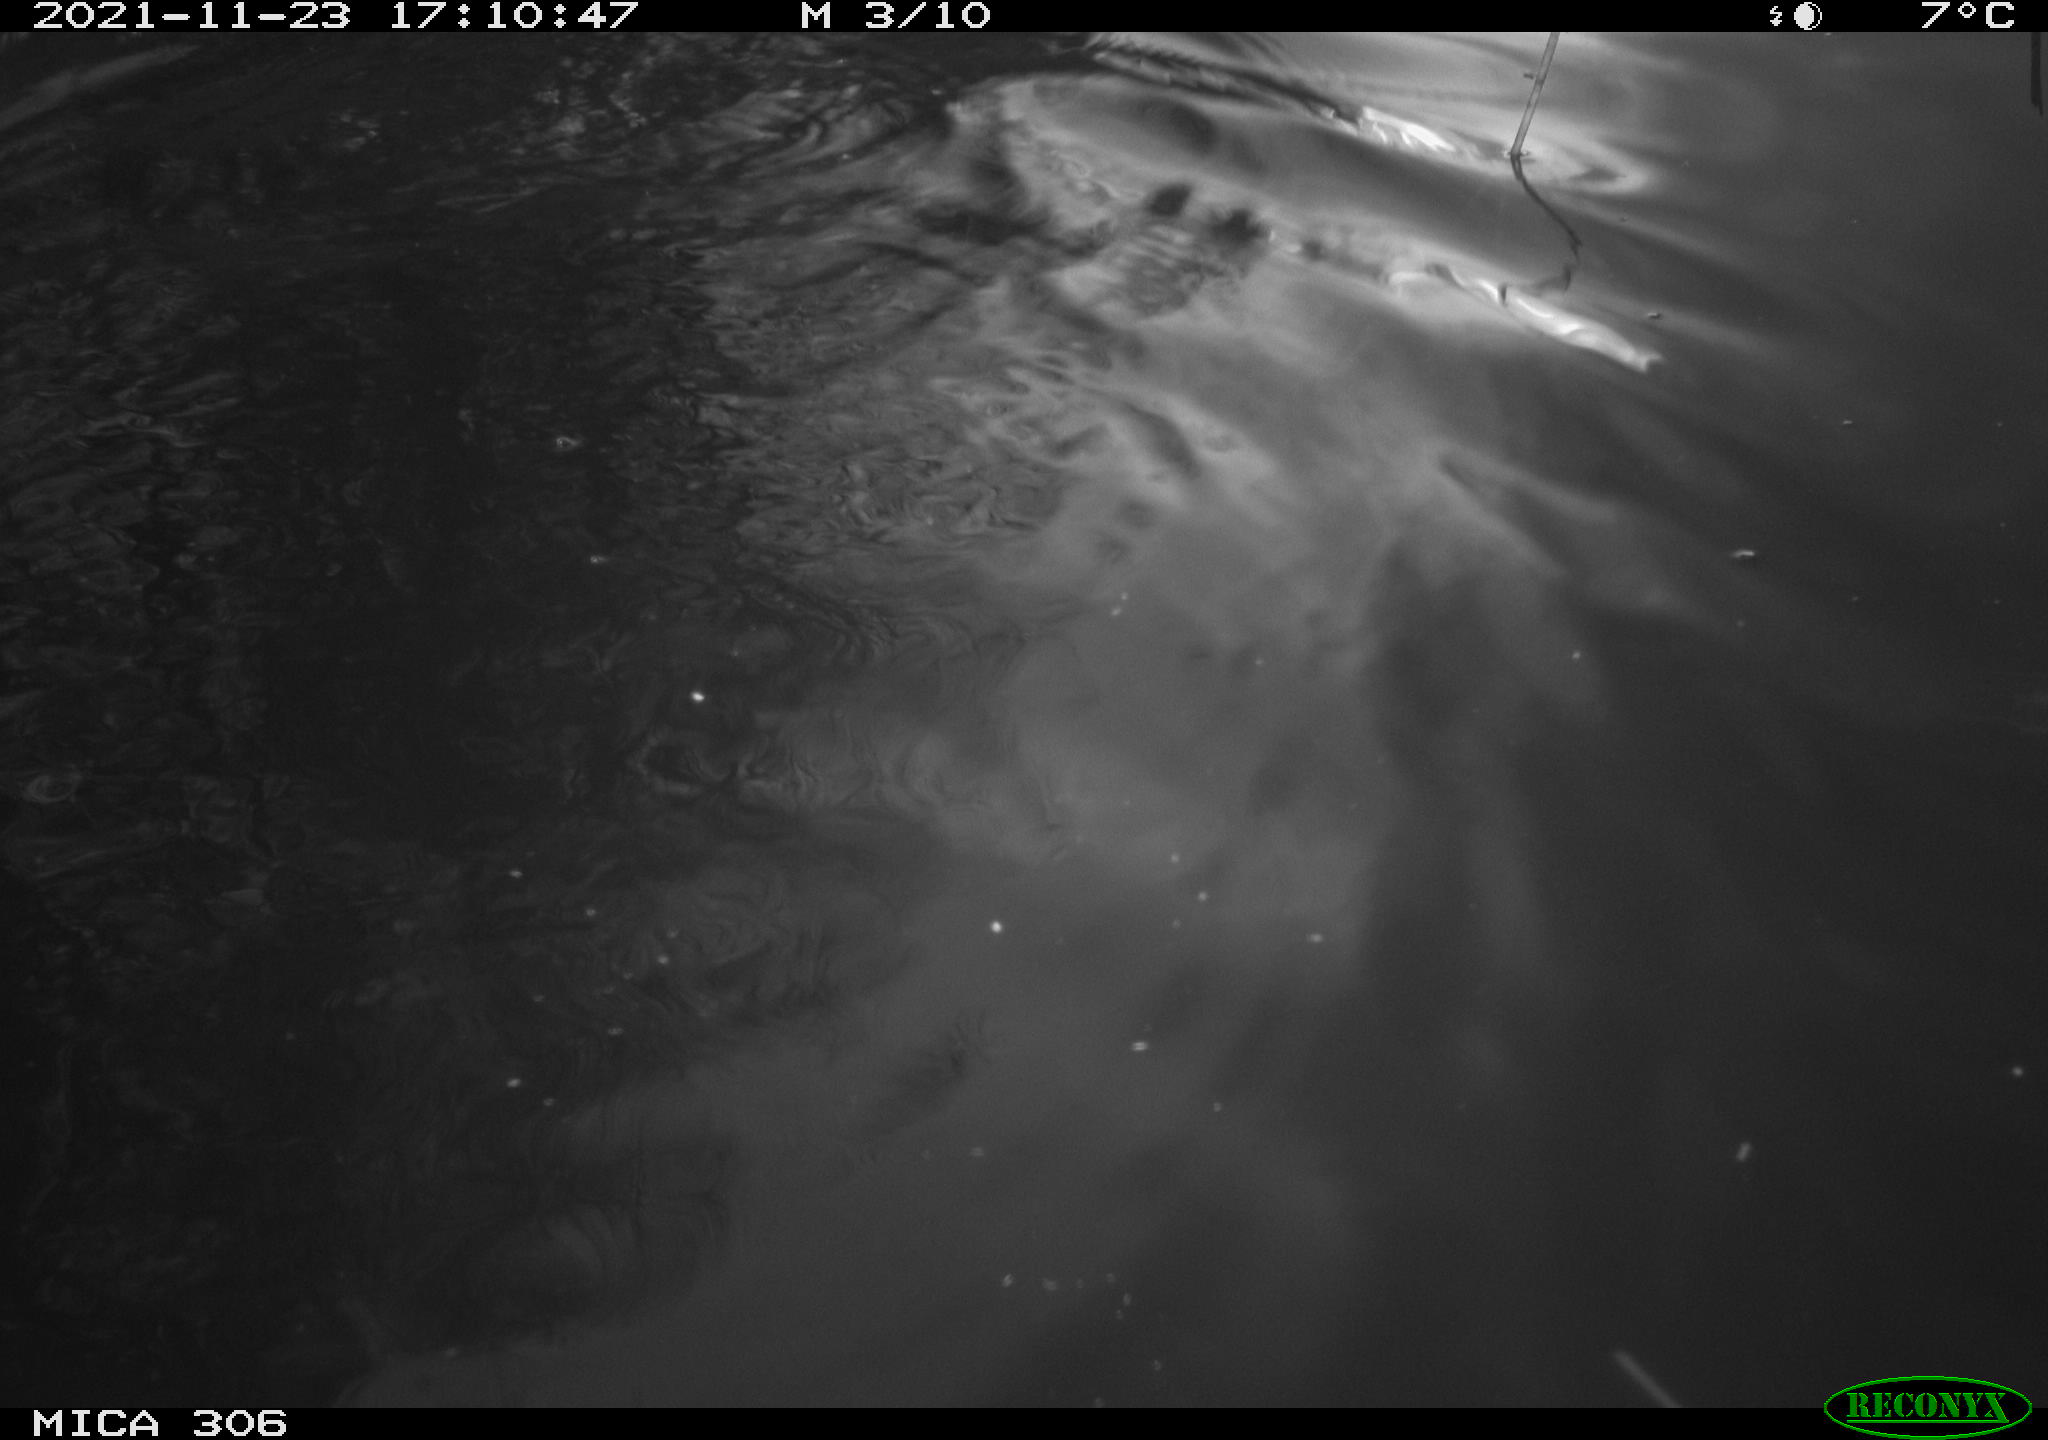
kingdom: Animalia
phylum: Chordata
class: Mammalia
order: Rodentia
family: Cricetidae
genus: Ondatra
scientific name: Ondatra zibethicus
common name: Muskrat
